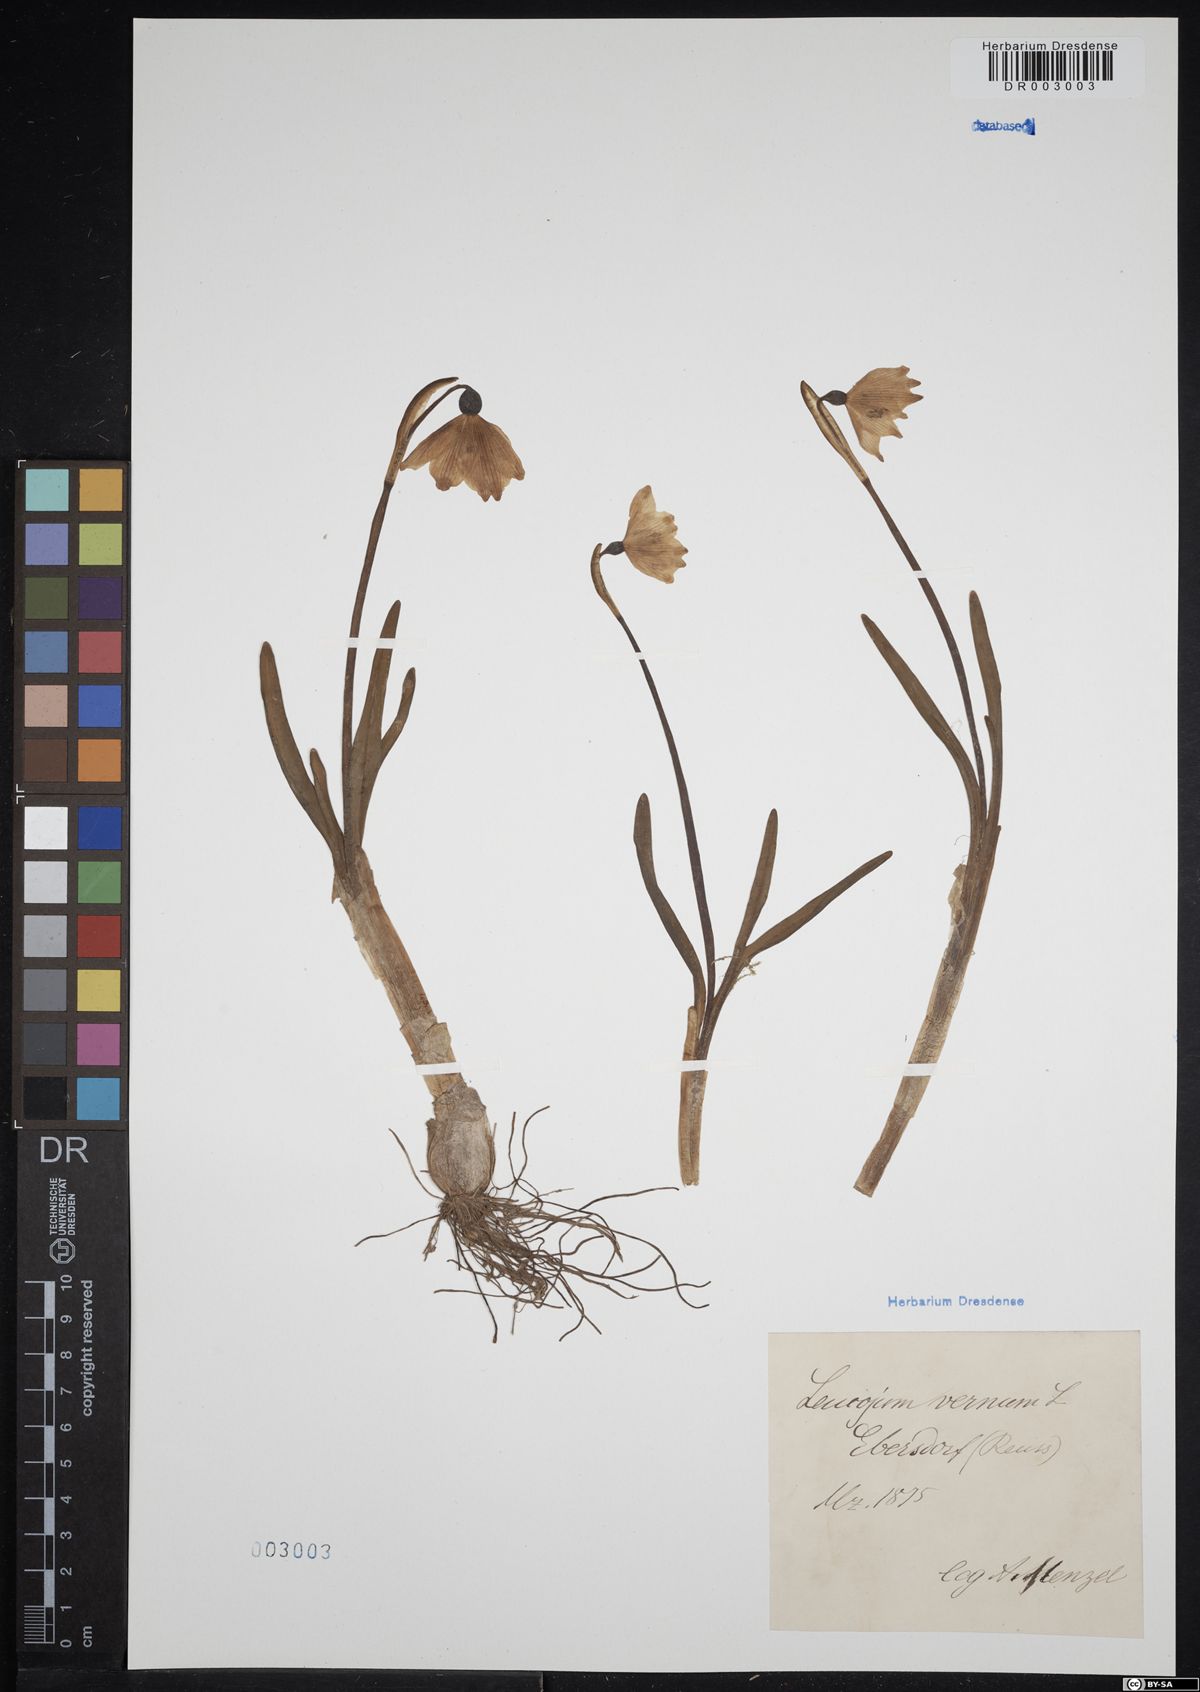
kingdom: Plantae
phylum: Tracheophyta
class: Liliopsida
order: Asparagales
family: Amaryllidaceae
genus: Leucojum
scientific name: Leucojum vernum
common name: Spring snowflake
